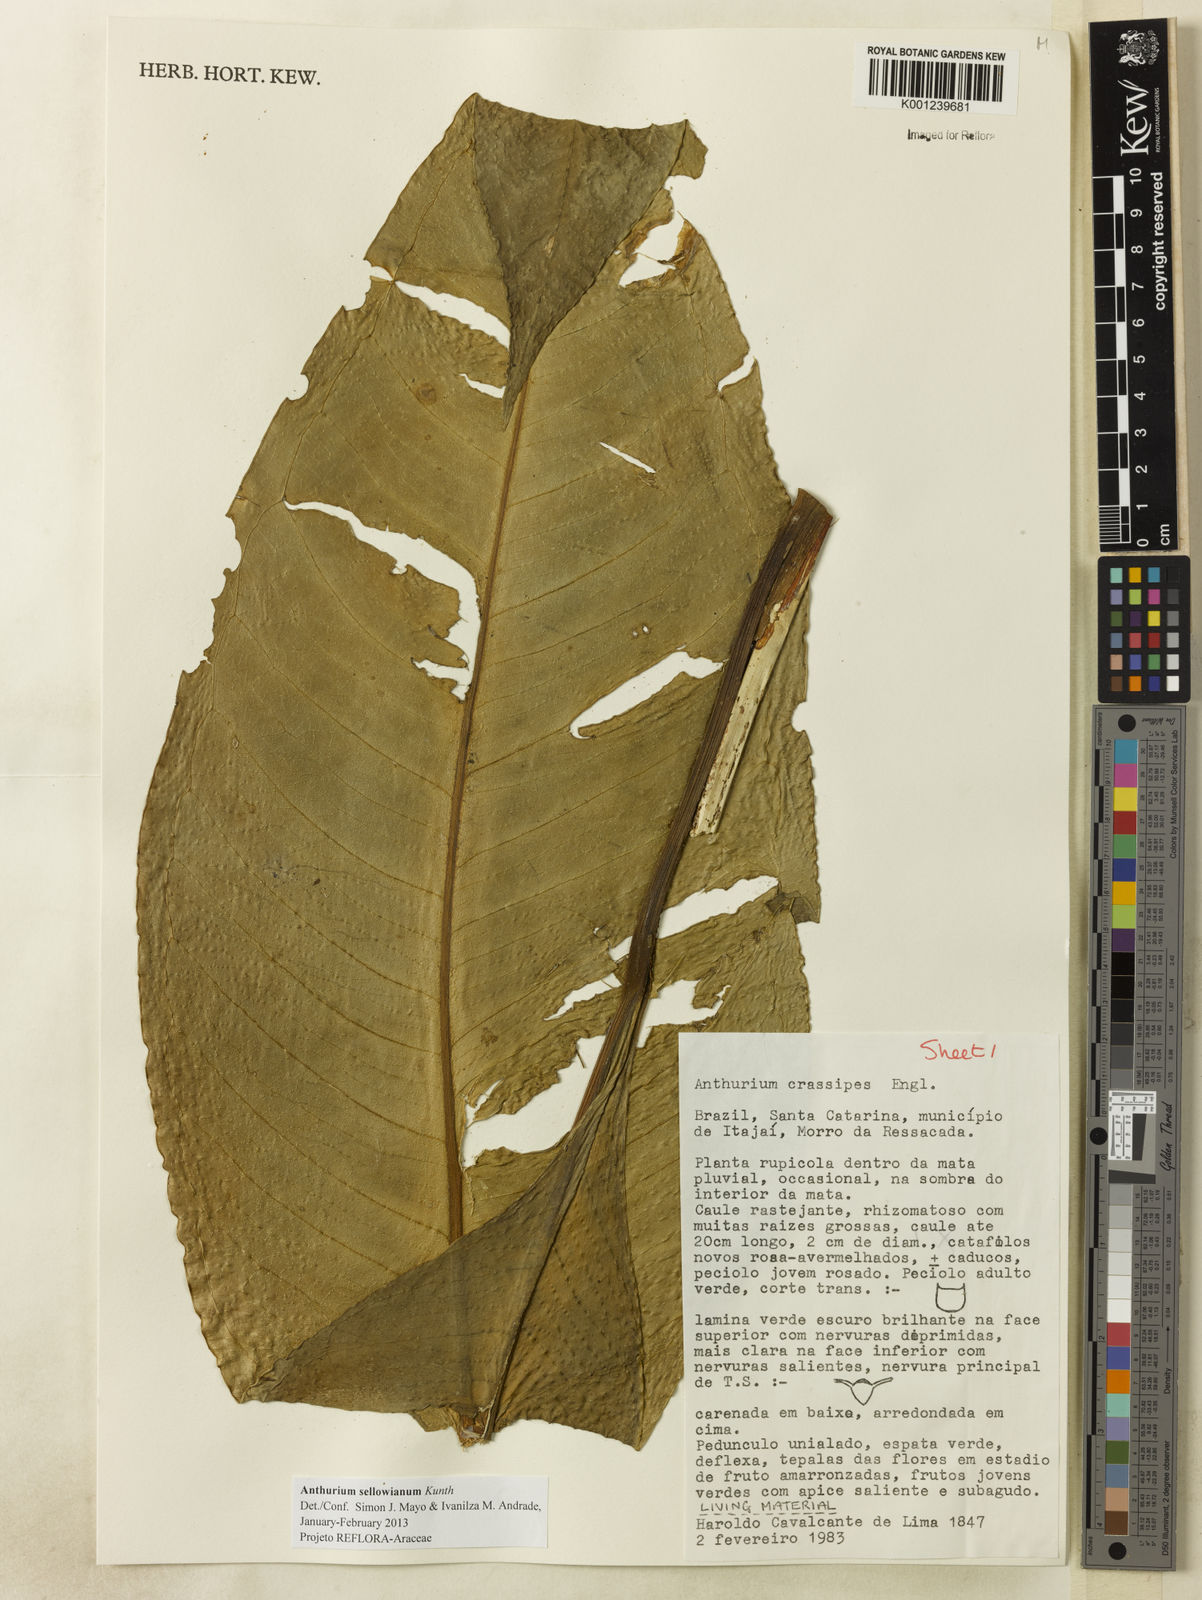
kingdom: Plantae
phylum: Tracheophyta
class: Liliopsida
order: Alismatales
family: Araceae
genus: Anthurium
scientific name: Anthurium sellowianum
